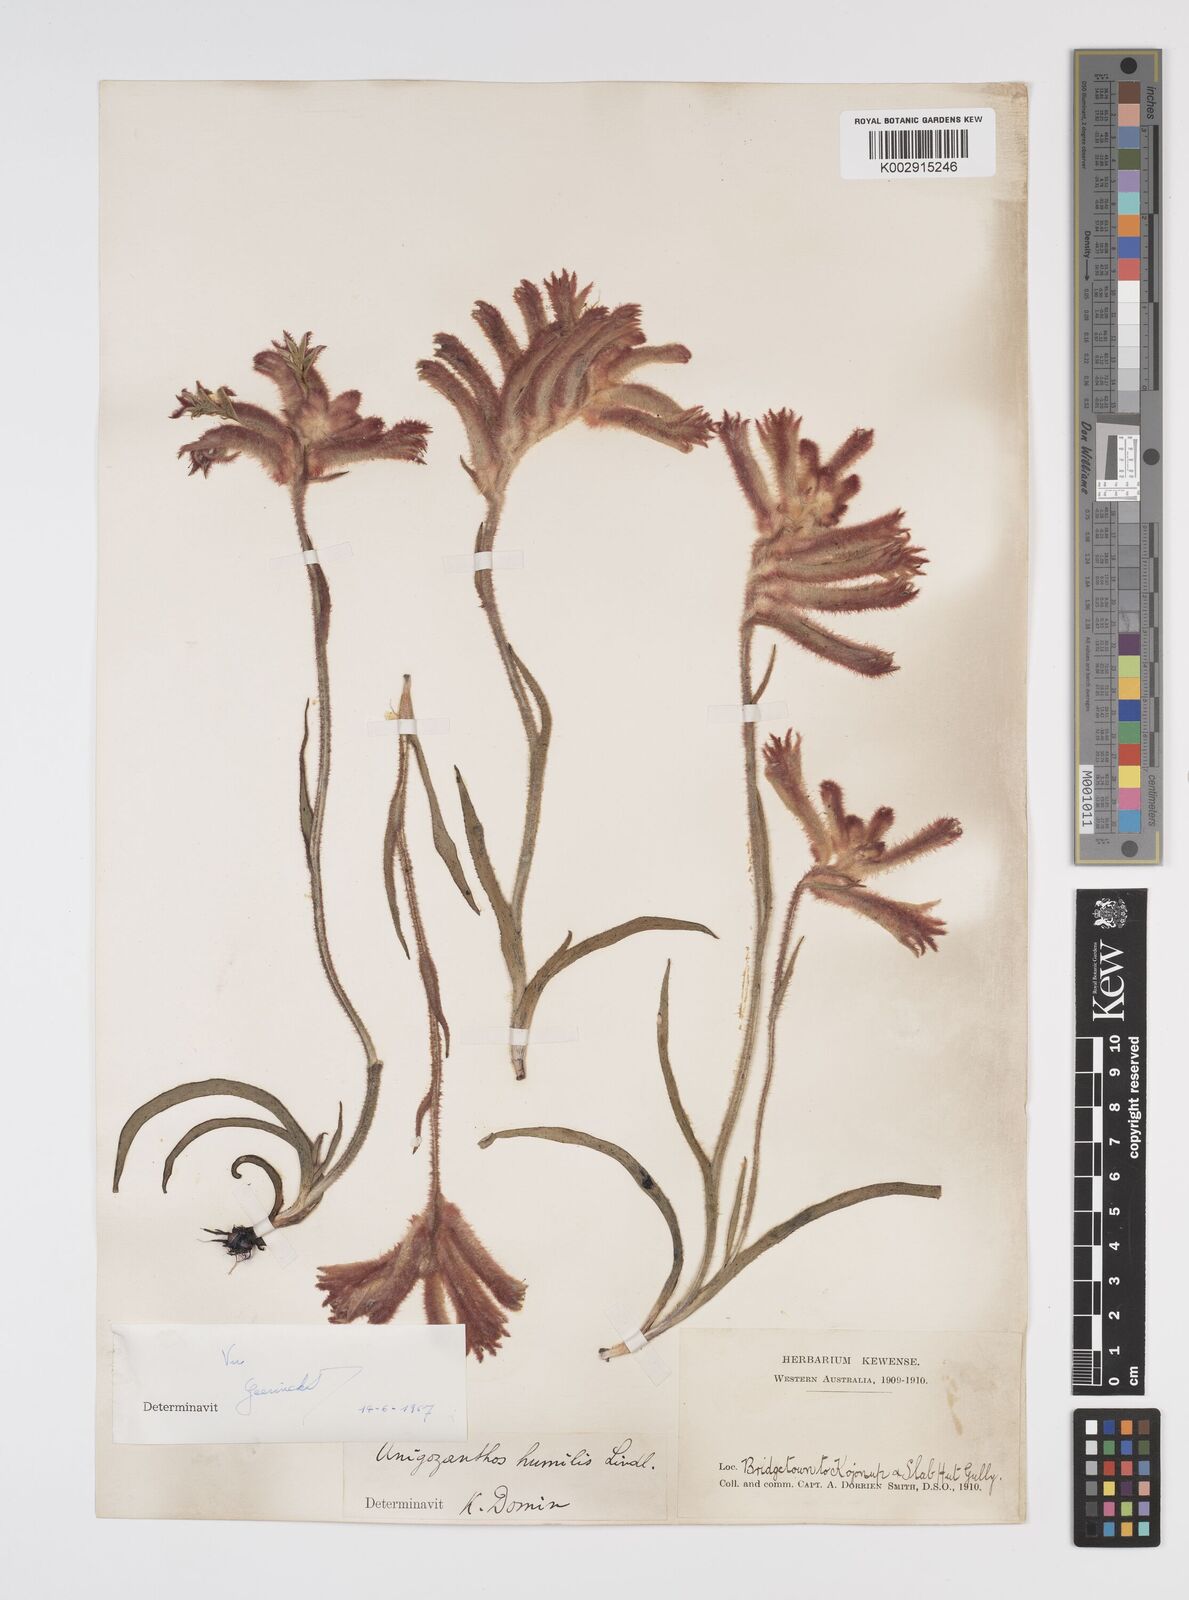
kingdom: Plantae
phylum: Tracheophyta
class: Liliopsida
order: Commelinales
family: Haemodoraceae
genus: Anigozanthos
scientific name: Anigozanthos humilis
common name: Cat's-paw
